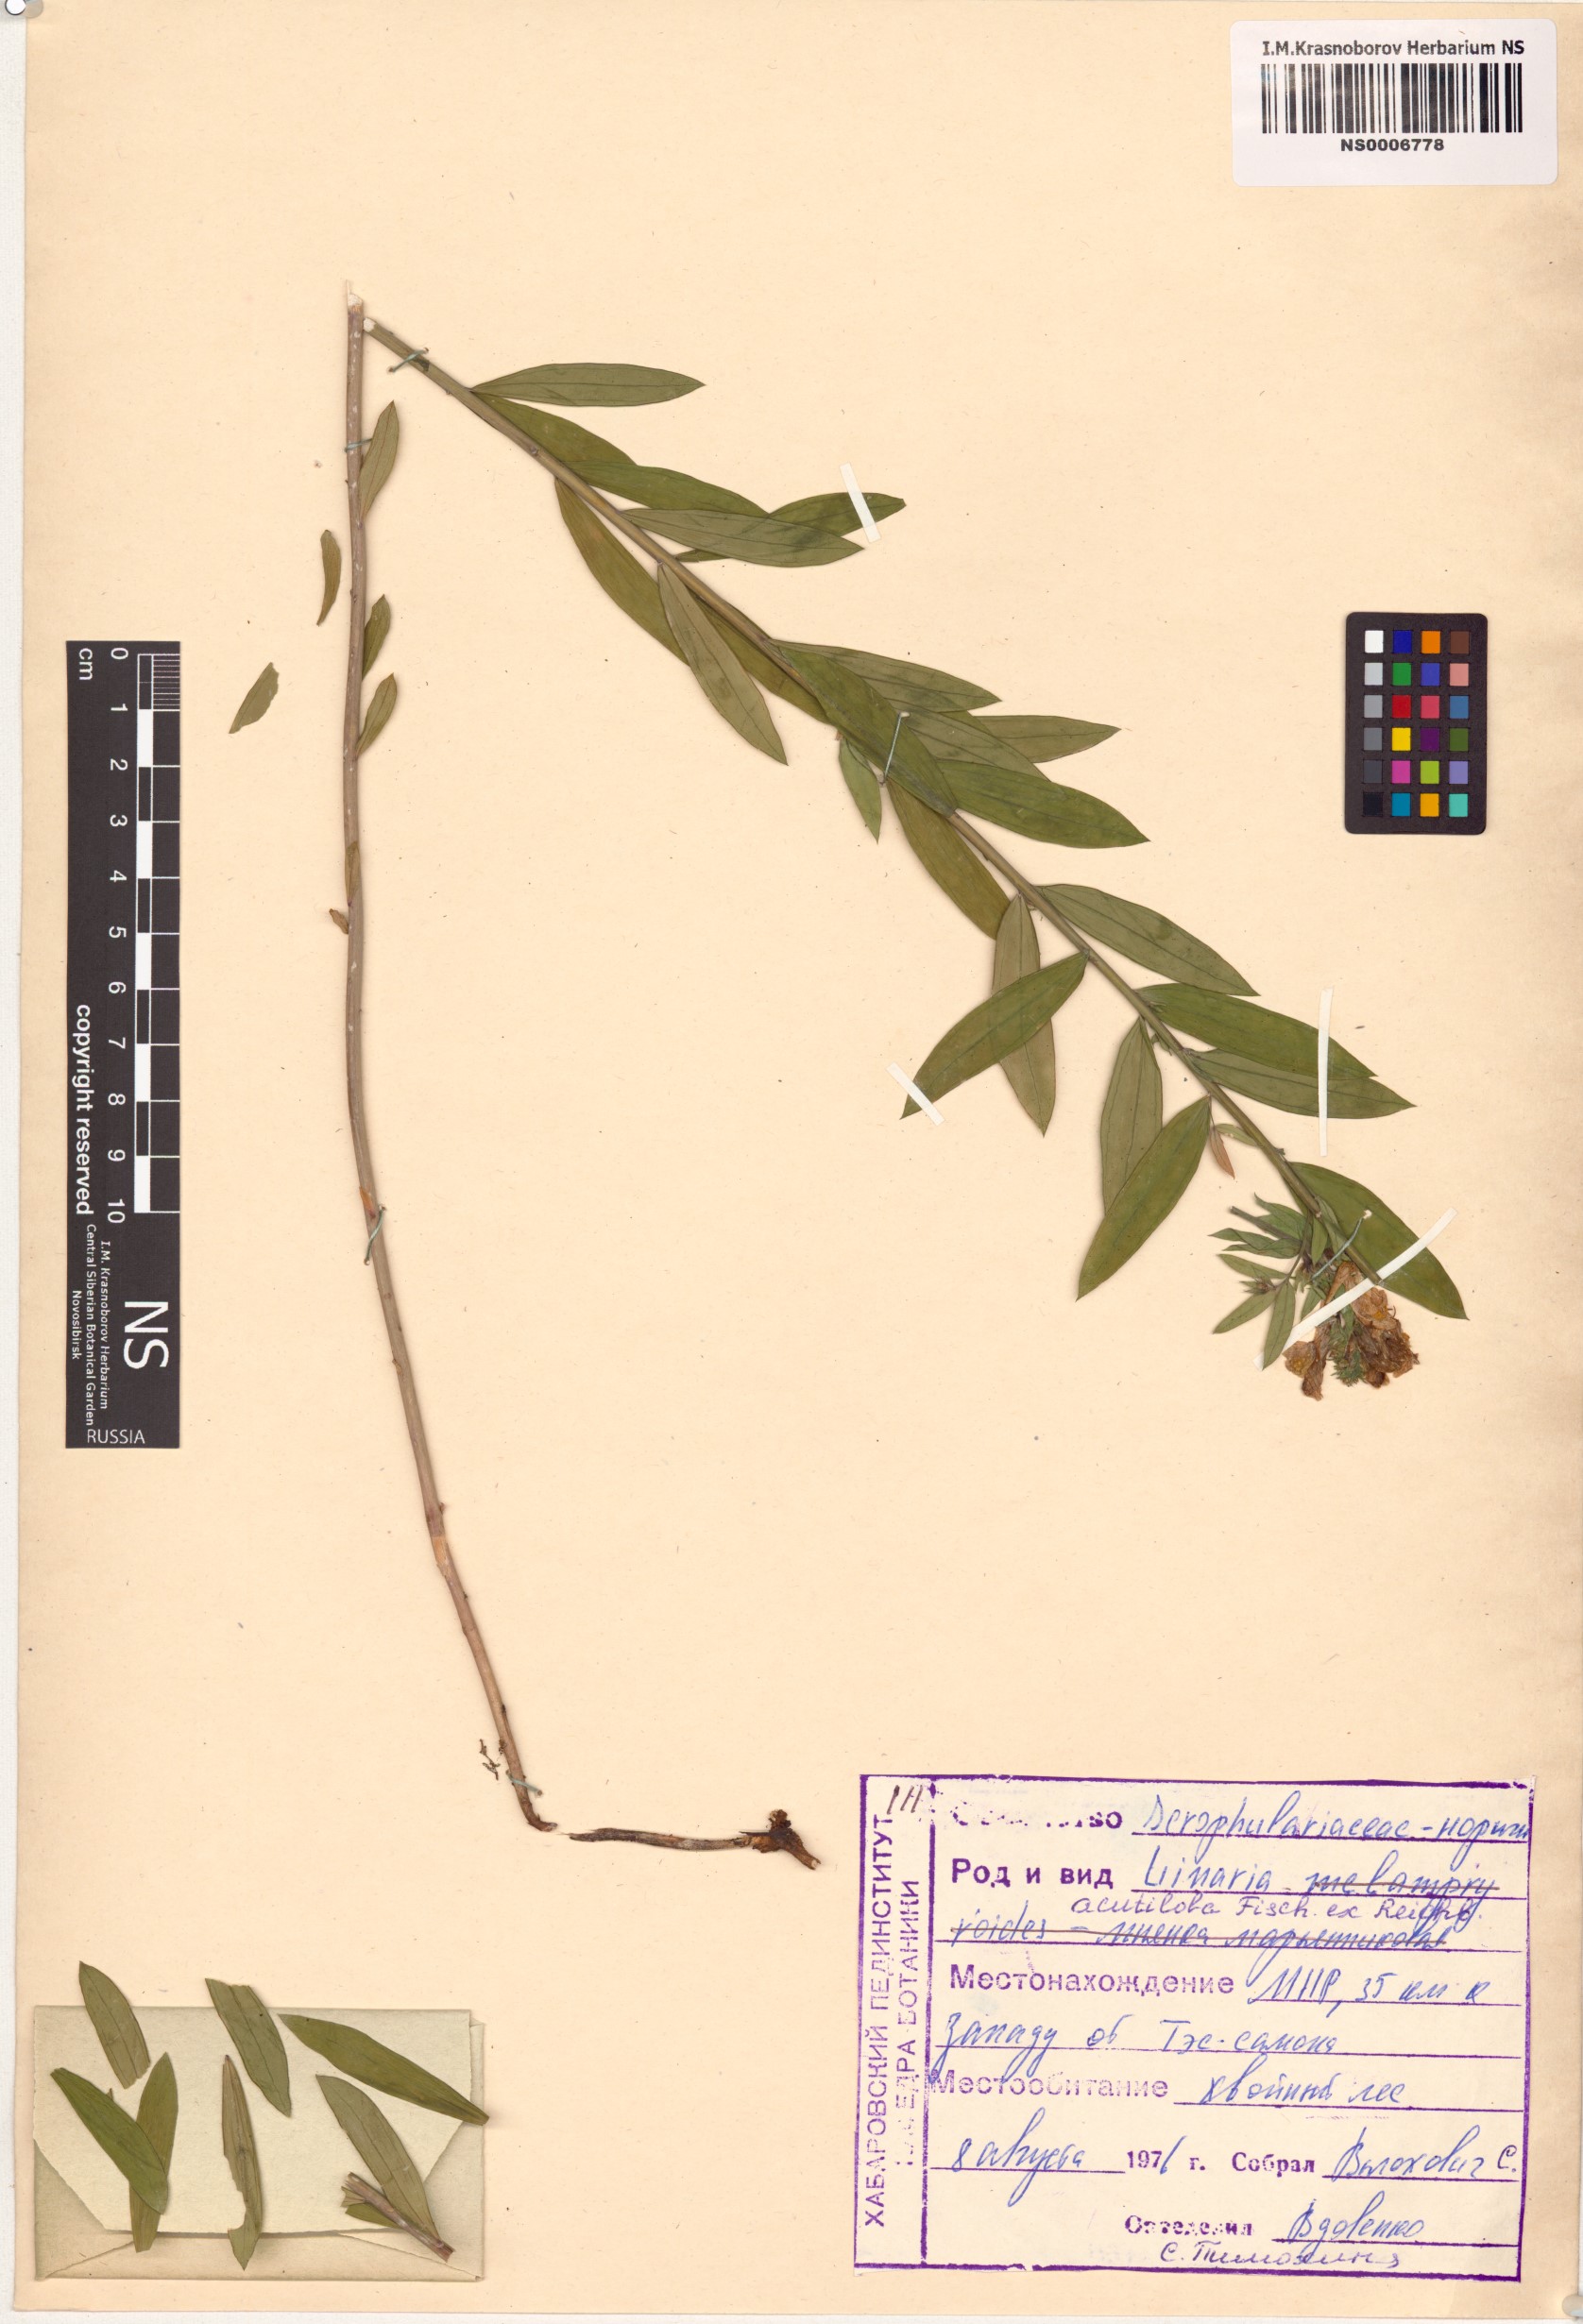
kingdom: Plantae
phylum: Tracheophyta
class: Magnoliopsida
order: Lamiales
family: Plantaginaceae
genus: Linaria
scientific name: Linaria acutiloba
